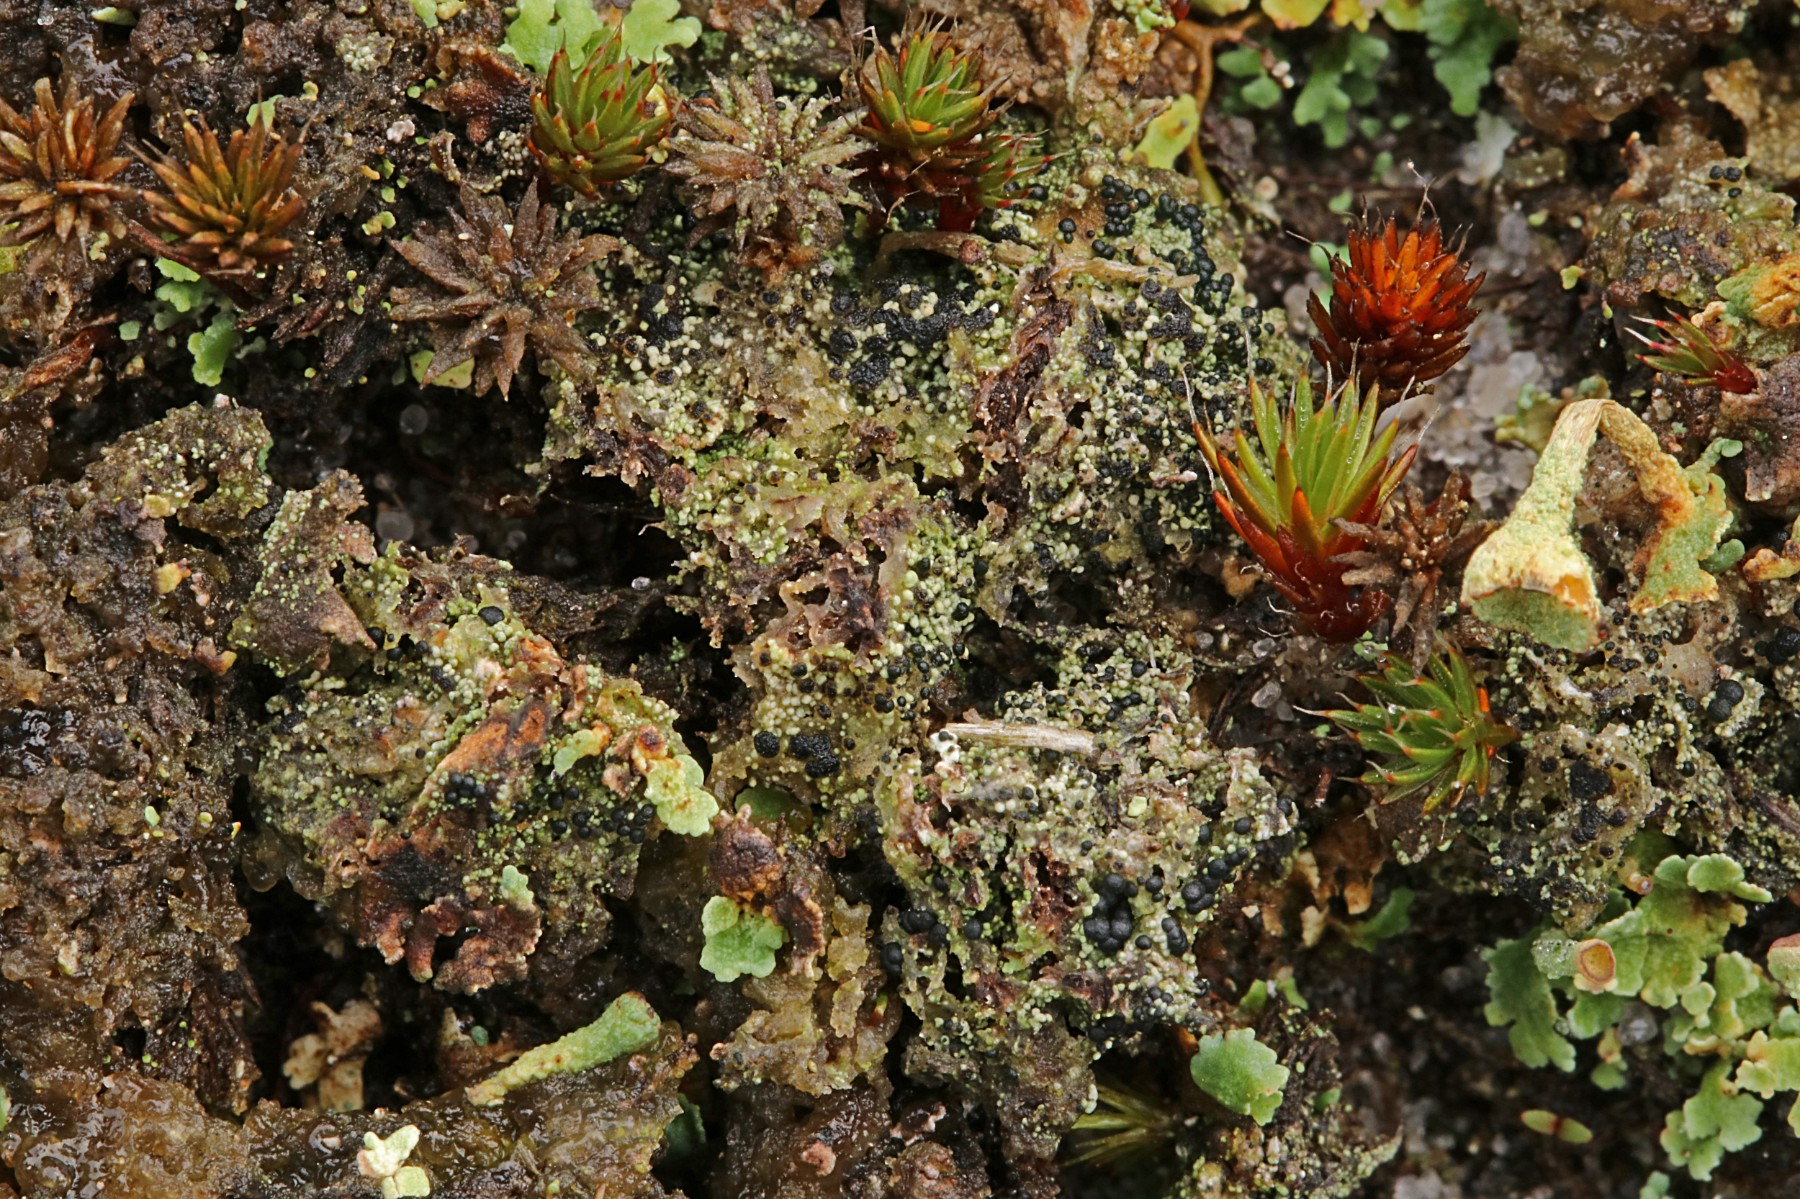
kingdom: Fungi
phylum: Ascomycota
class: Lecanoromycetes
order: Lecanorales
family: Byssolomataceae
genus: Micarea
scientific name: Micarea lignaria
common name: tørve-knaplav
